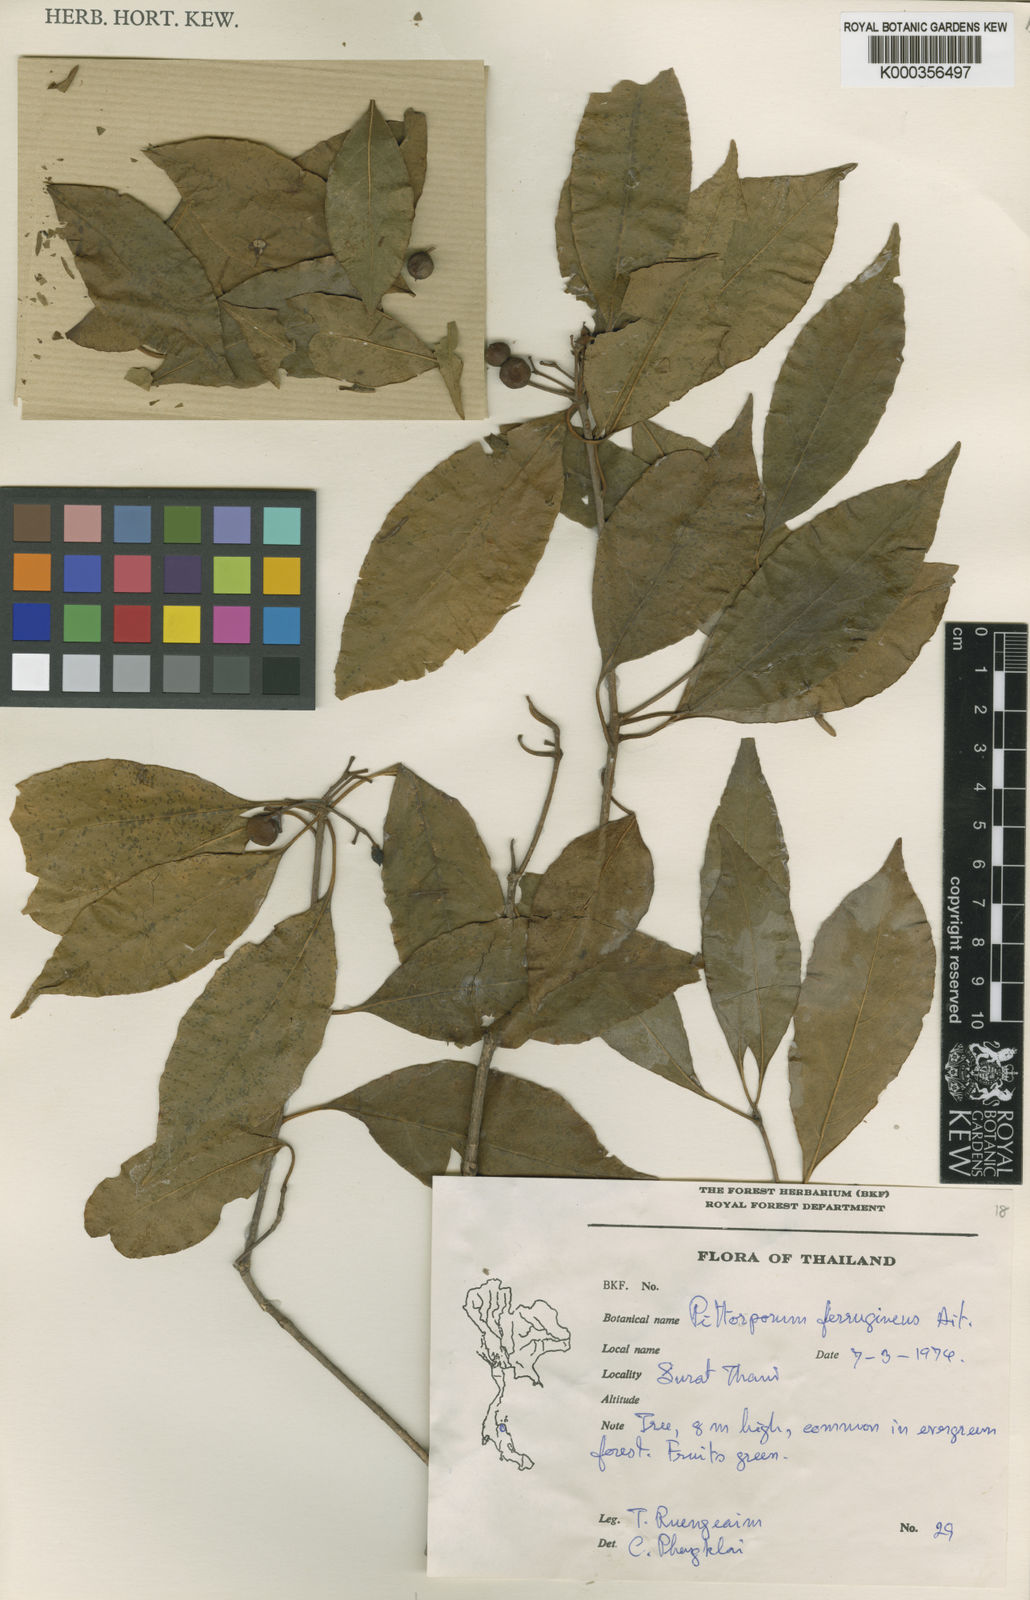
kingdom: Plantae
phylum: Tracheophyta
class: Magnoliopsida
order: Apiales
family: Pittosporaceae
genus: Pittosporum
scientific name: Pittosporum ferrugineum
